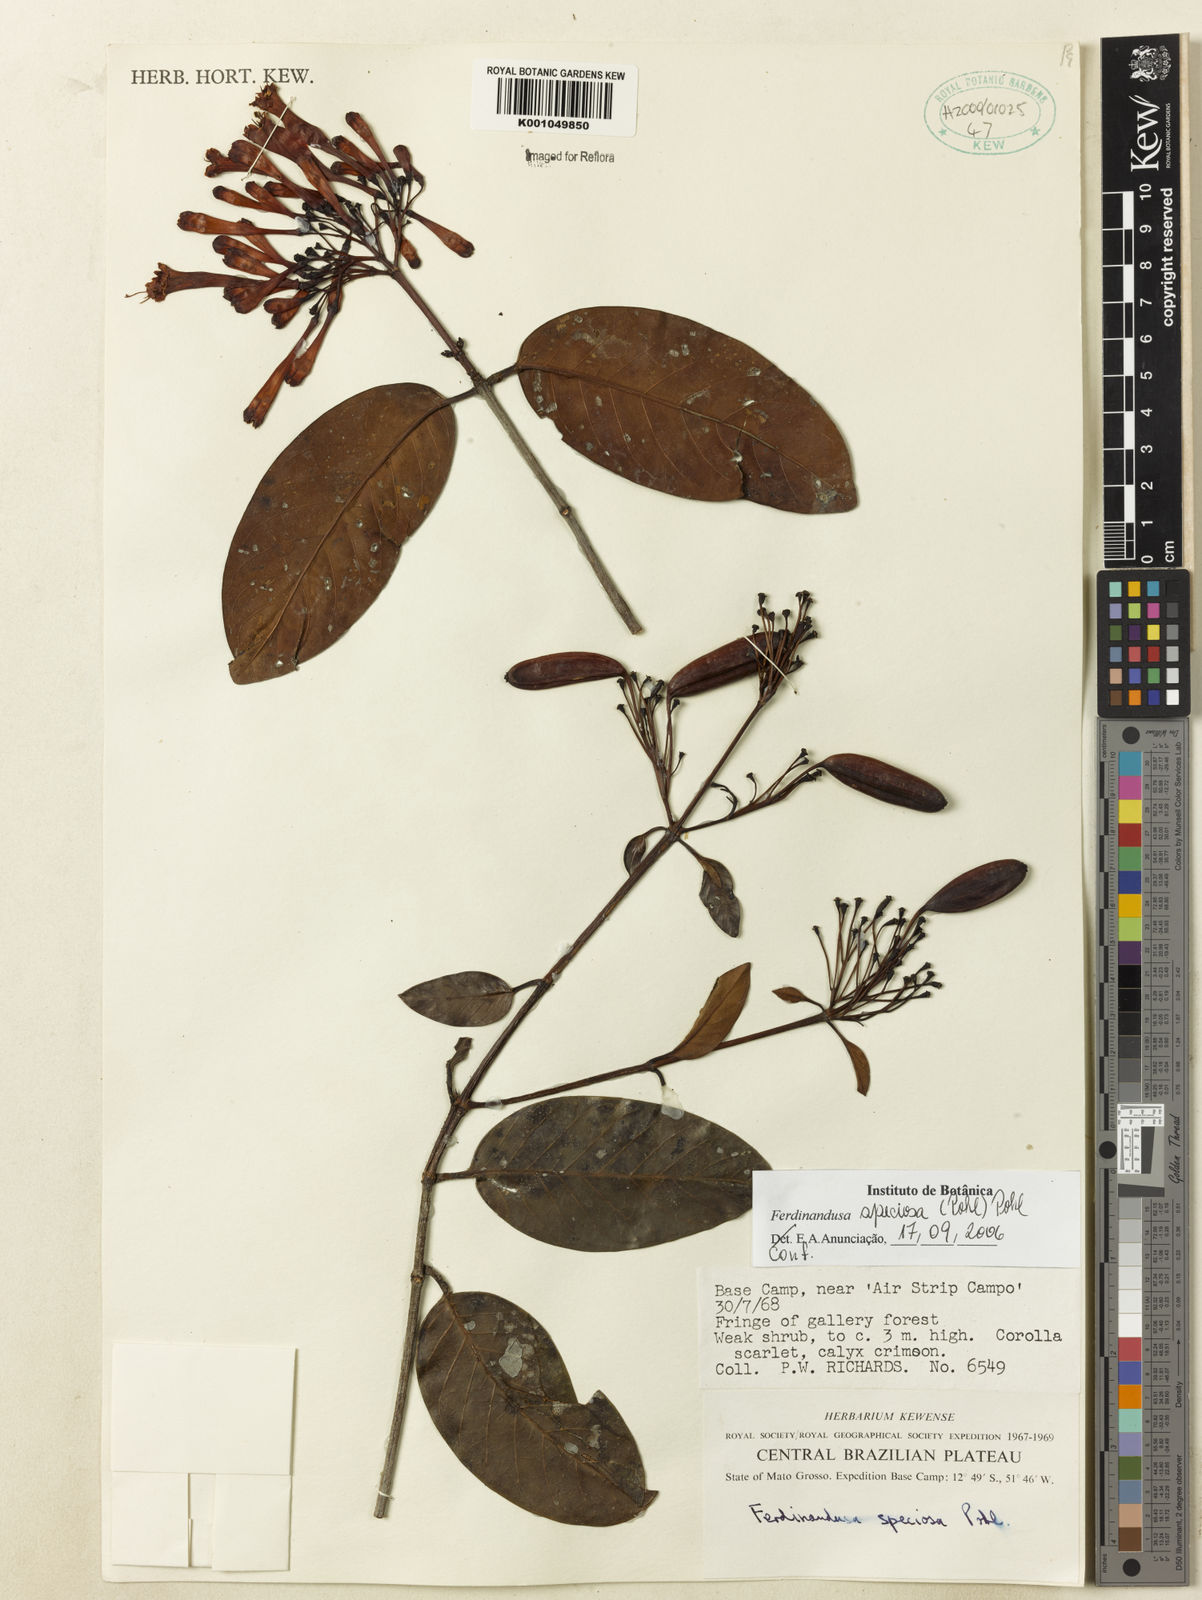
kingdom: Plantae
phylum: Tracheophyta
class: Magnoliopsida
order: Gentianales
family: Rubiaceae
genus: Ferdinandusa
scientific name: Ferdinandusa speciosa
